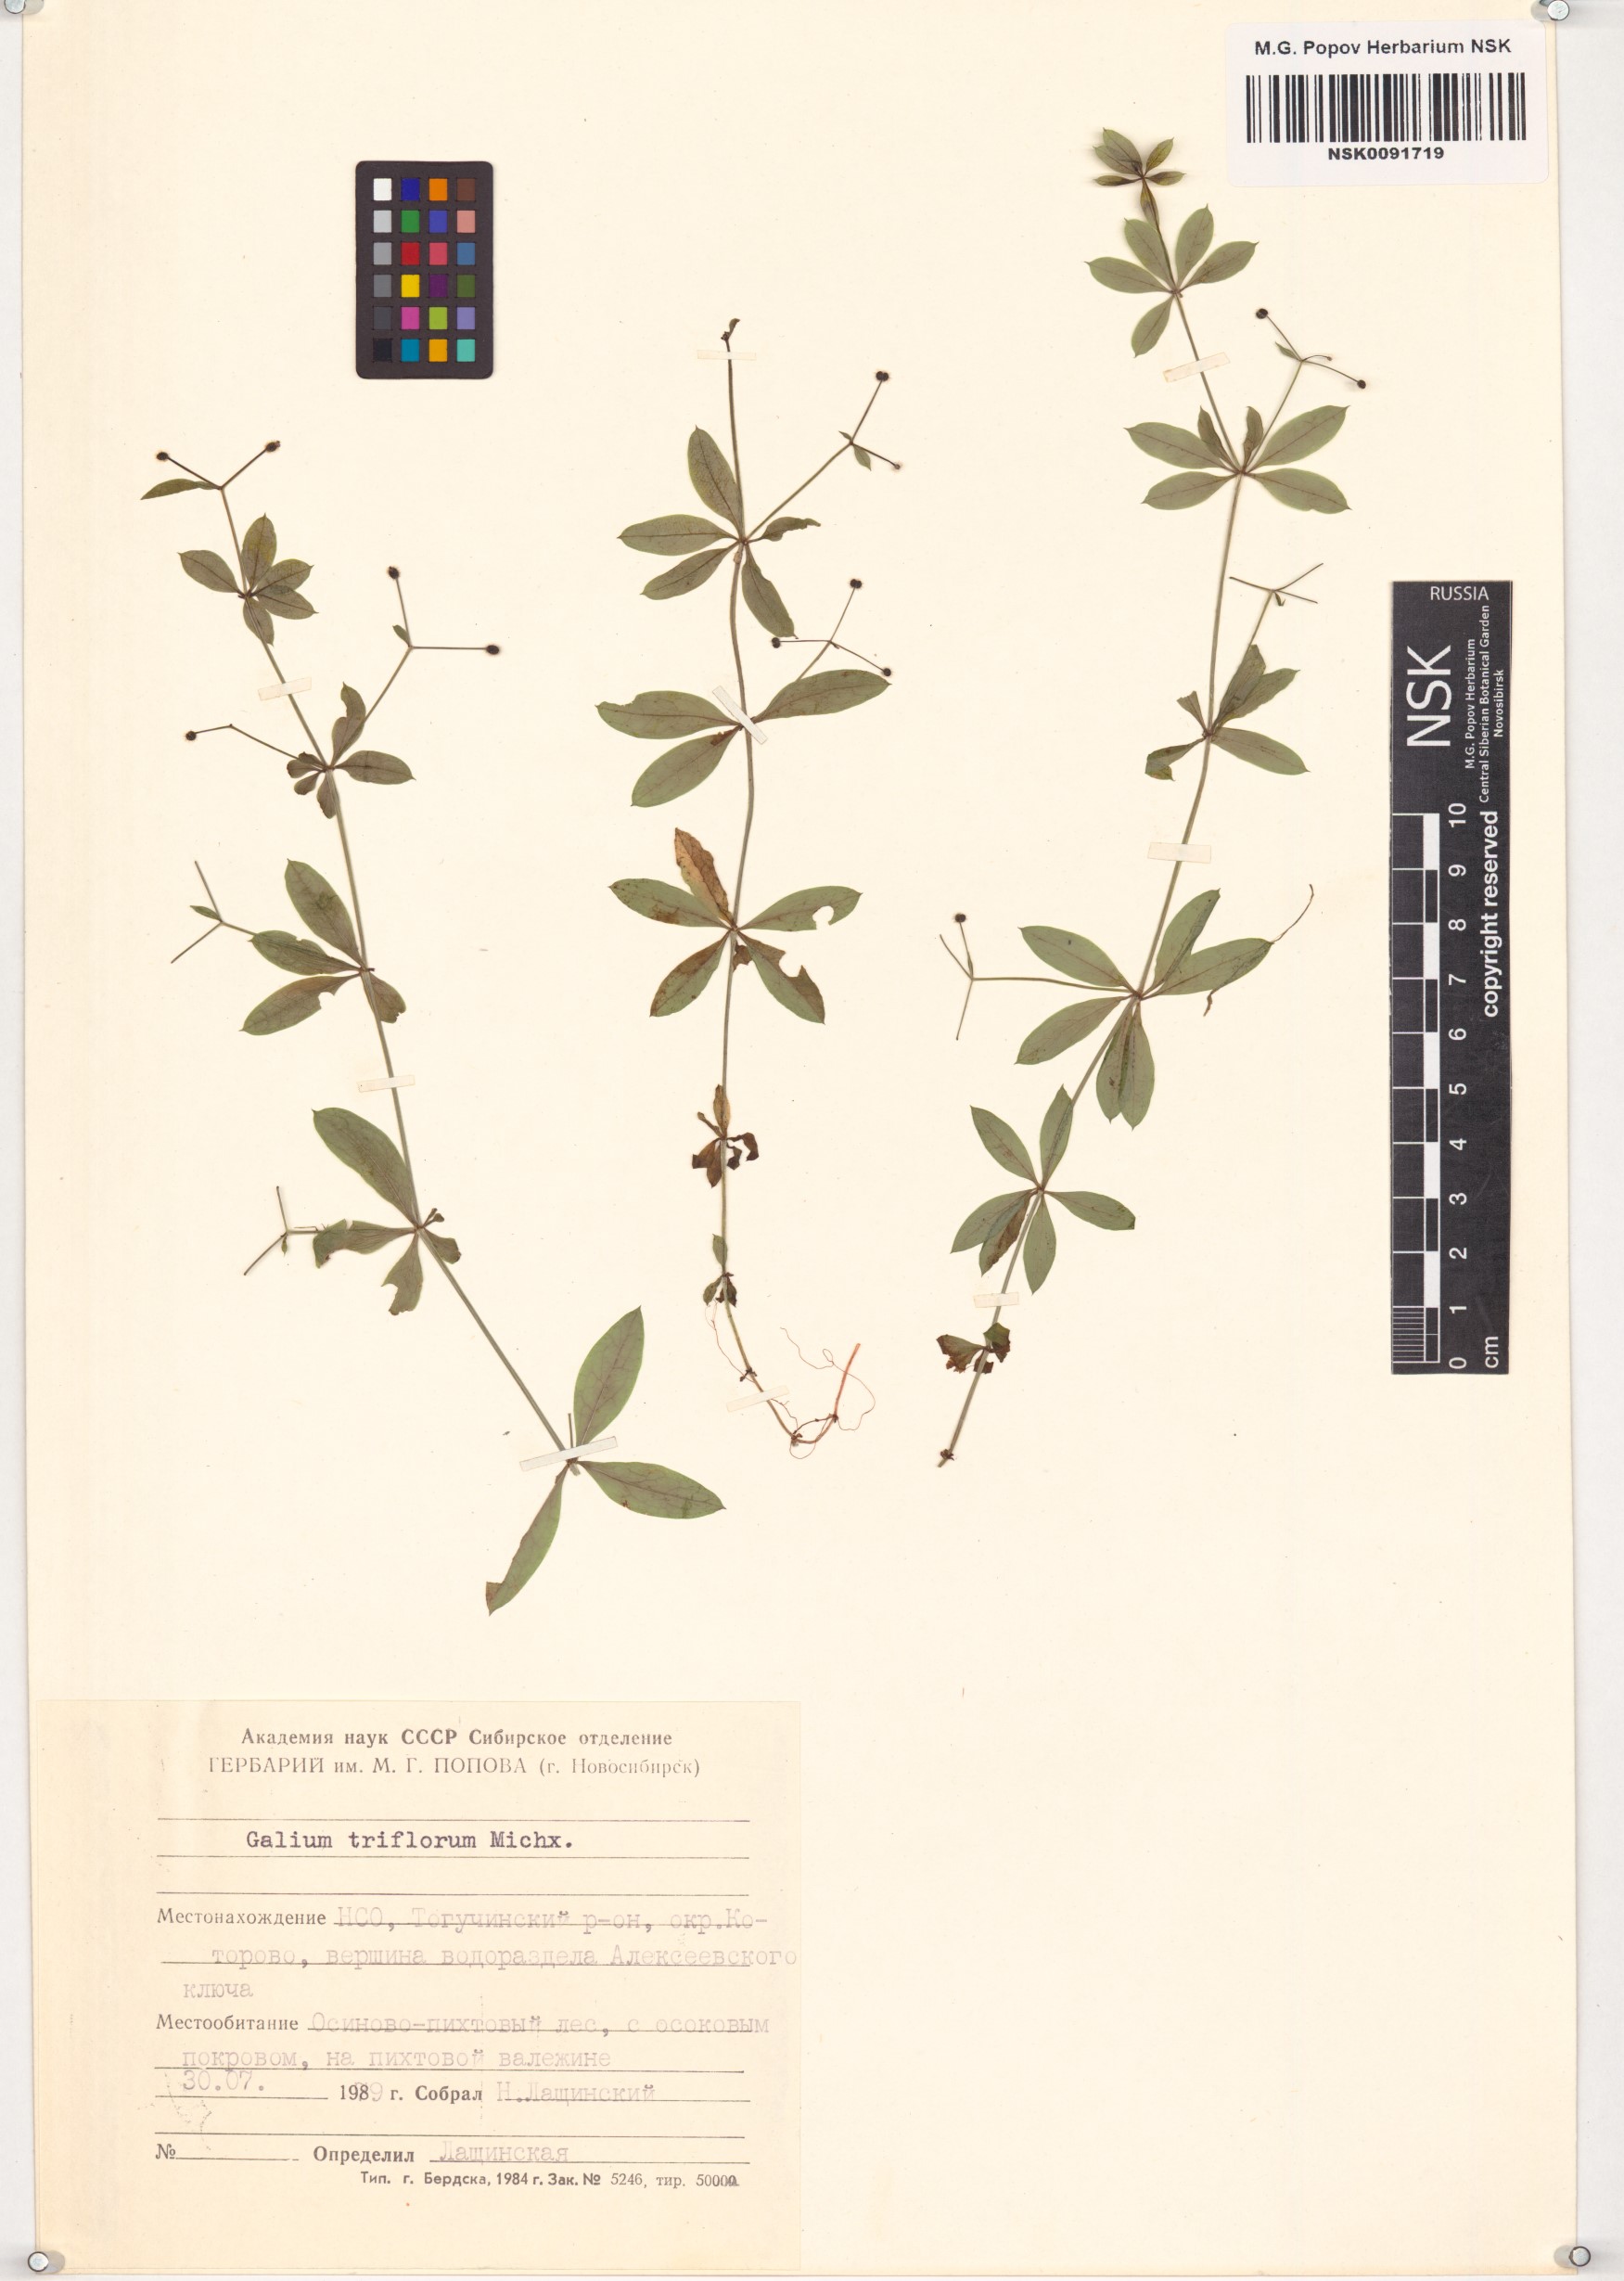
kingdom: Plantae
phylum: Tracheophyta
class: Magnoliopsida
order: Gentianales
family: Rubiaceae
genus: Galium
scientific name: Galium triflorum
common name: Fragrant bedstraw
